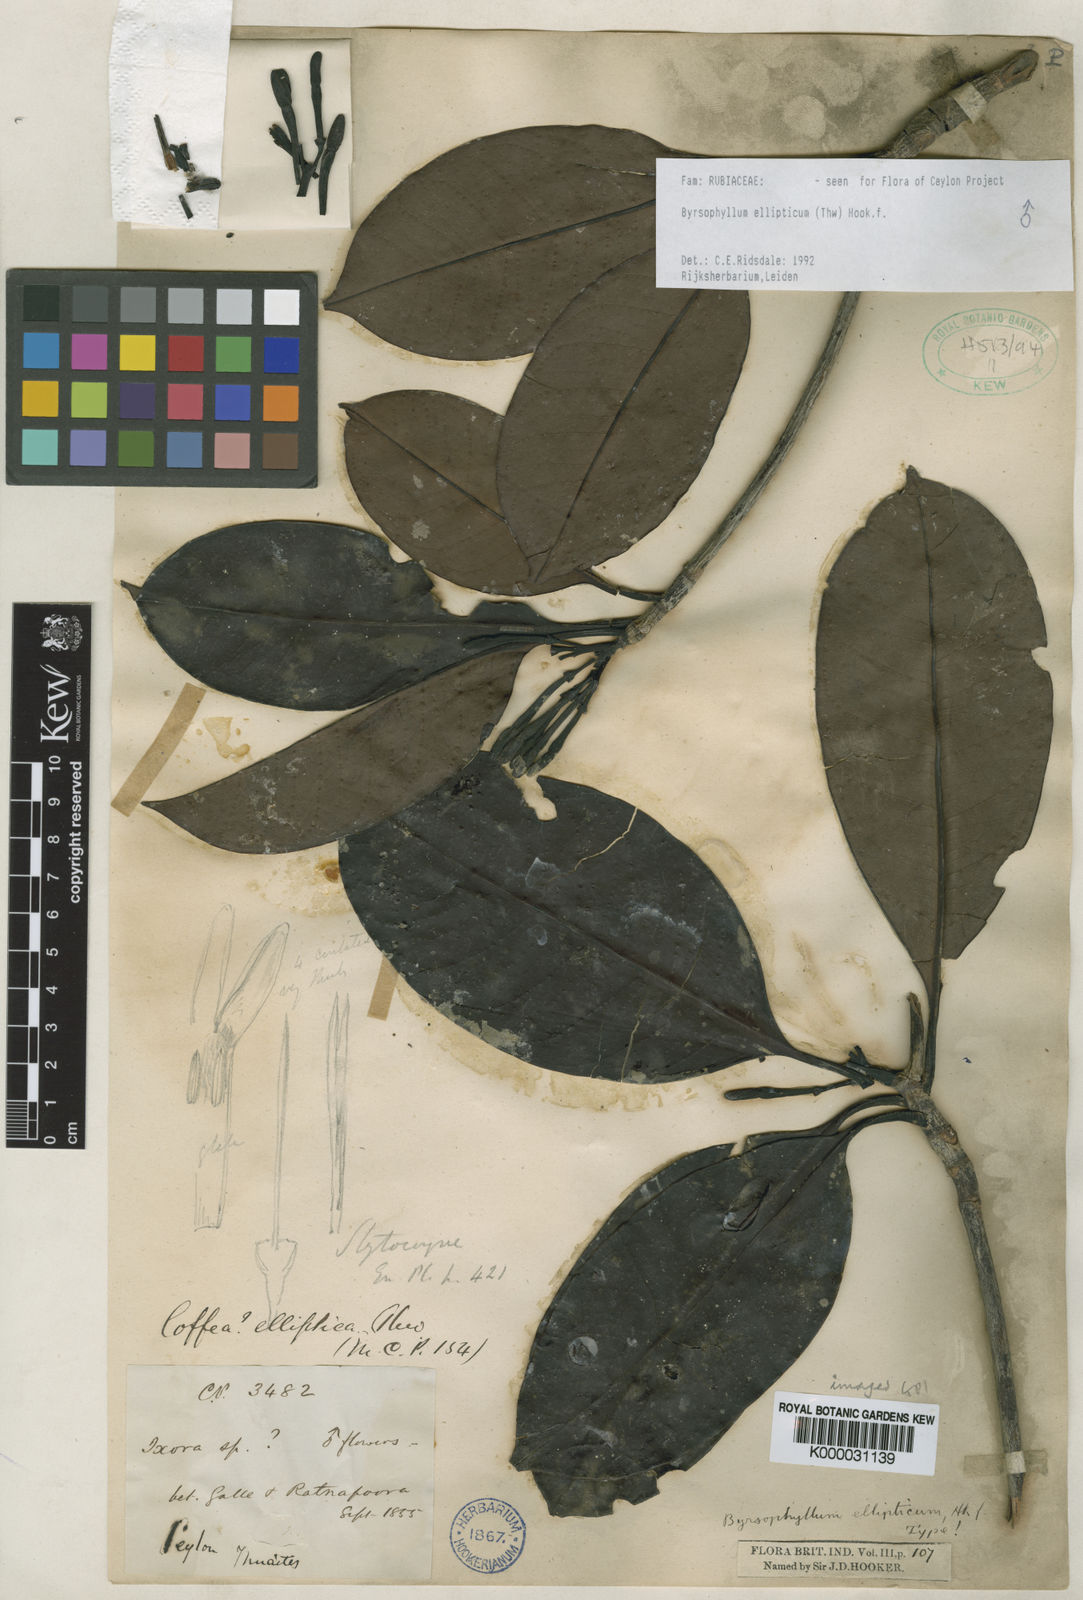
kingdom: Plantae
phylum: Tracheophyta
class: Magnoliopsida
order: Gentianales
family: Rubiaceae
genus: Byrsophyllum
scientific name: Byrsophyllum
